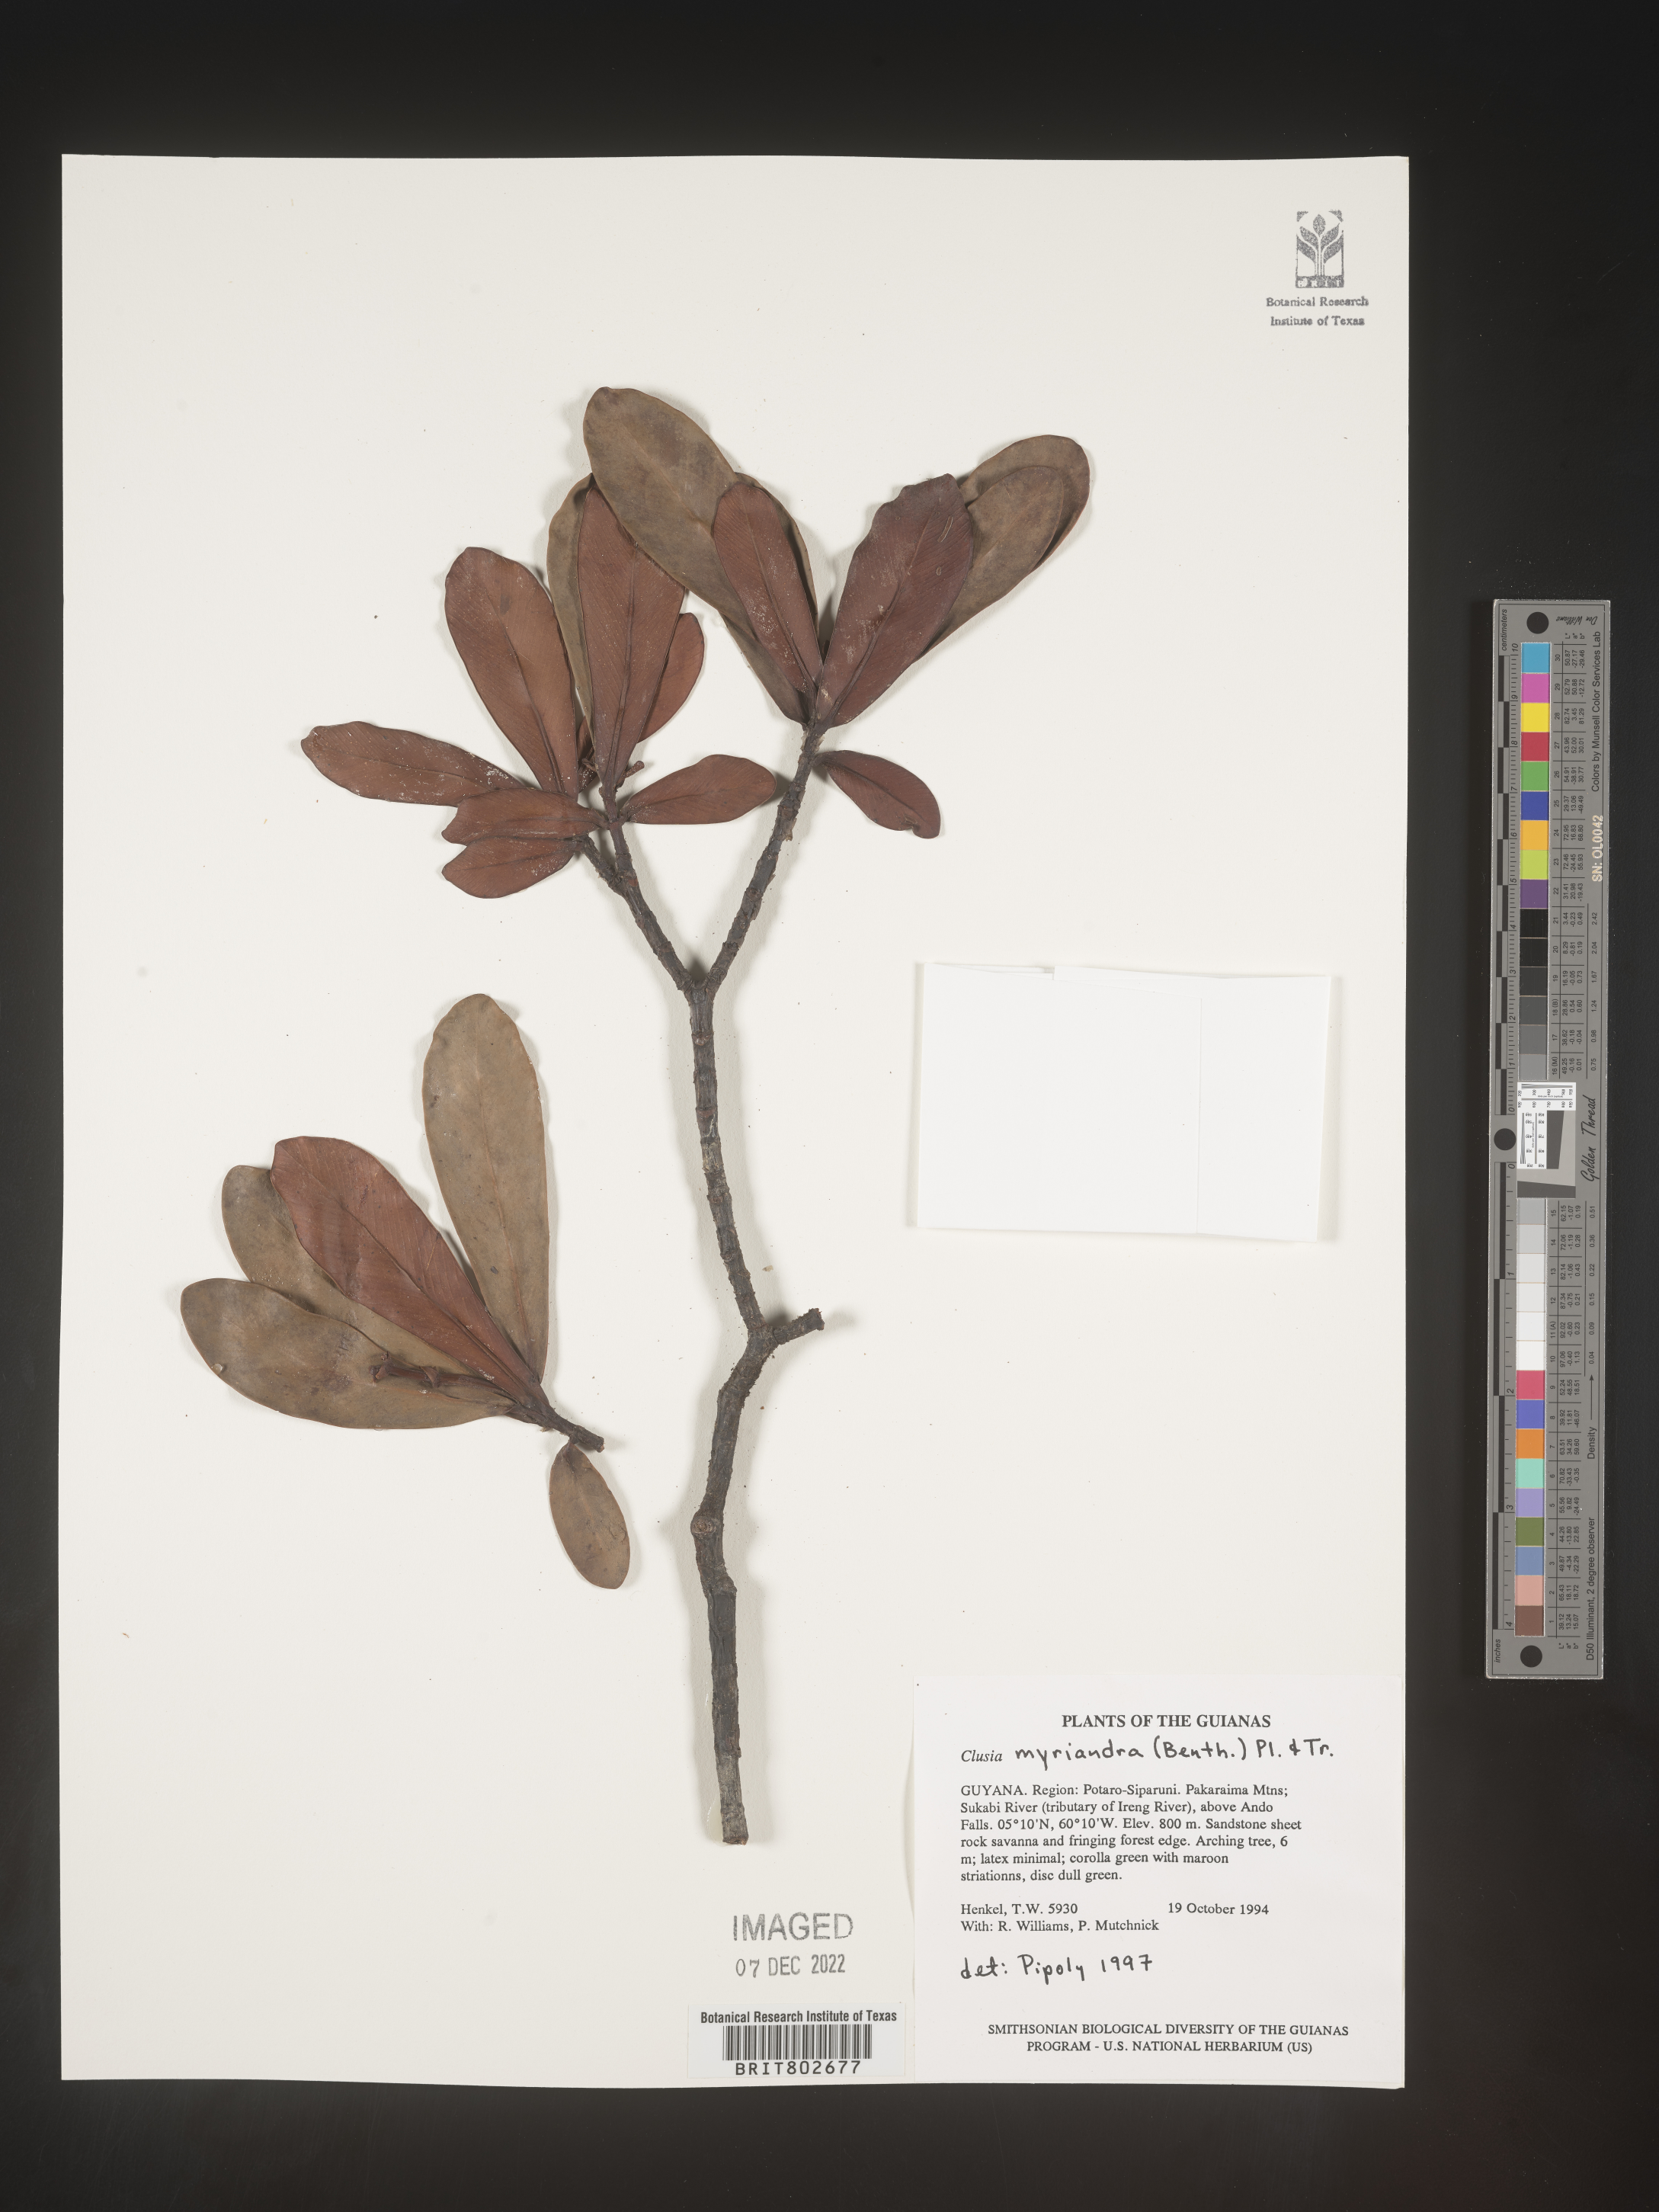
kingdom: Plantae
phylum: Tracheophyta
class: Magnoliopsida
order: Malpighiales
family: Clusiaceae
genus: Clusia
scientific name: Clusia myriandra
